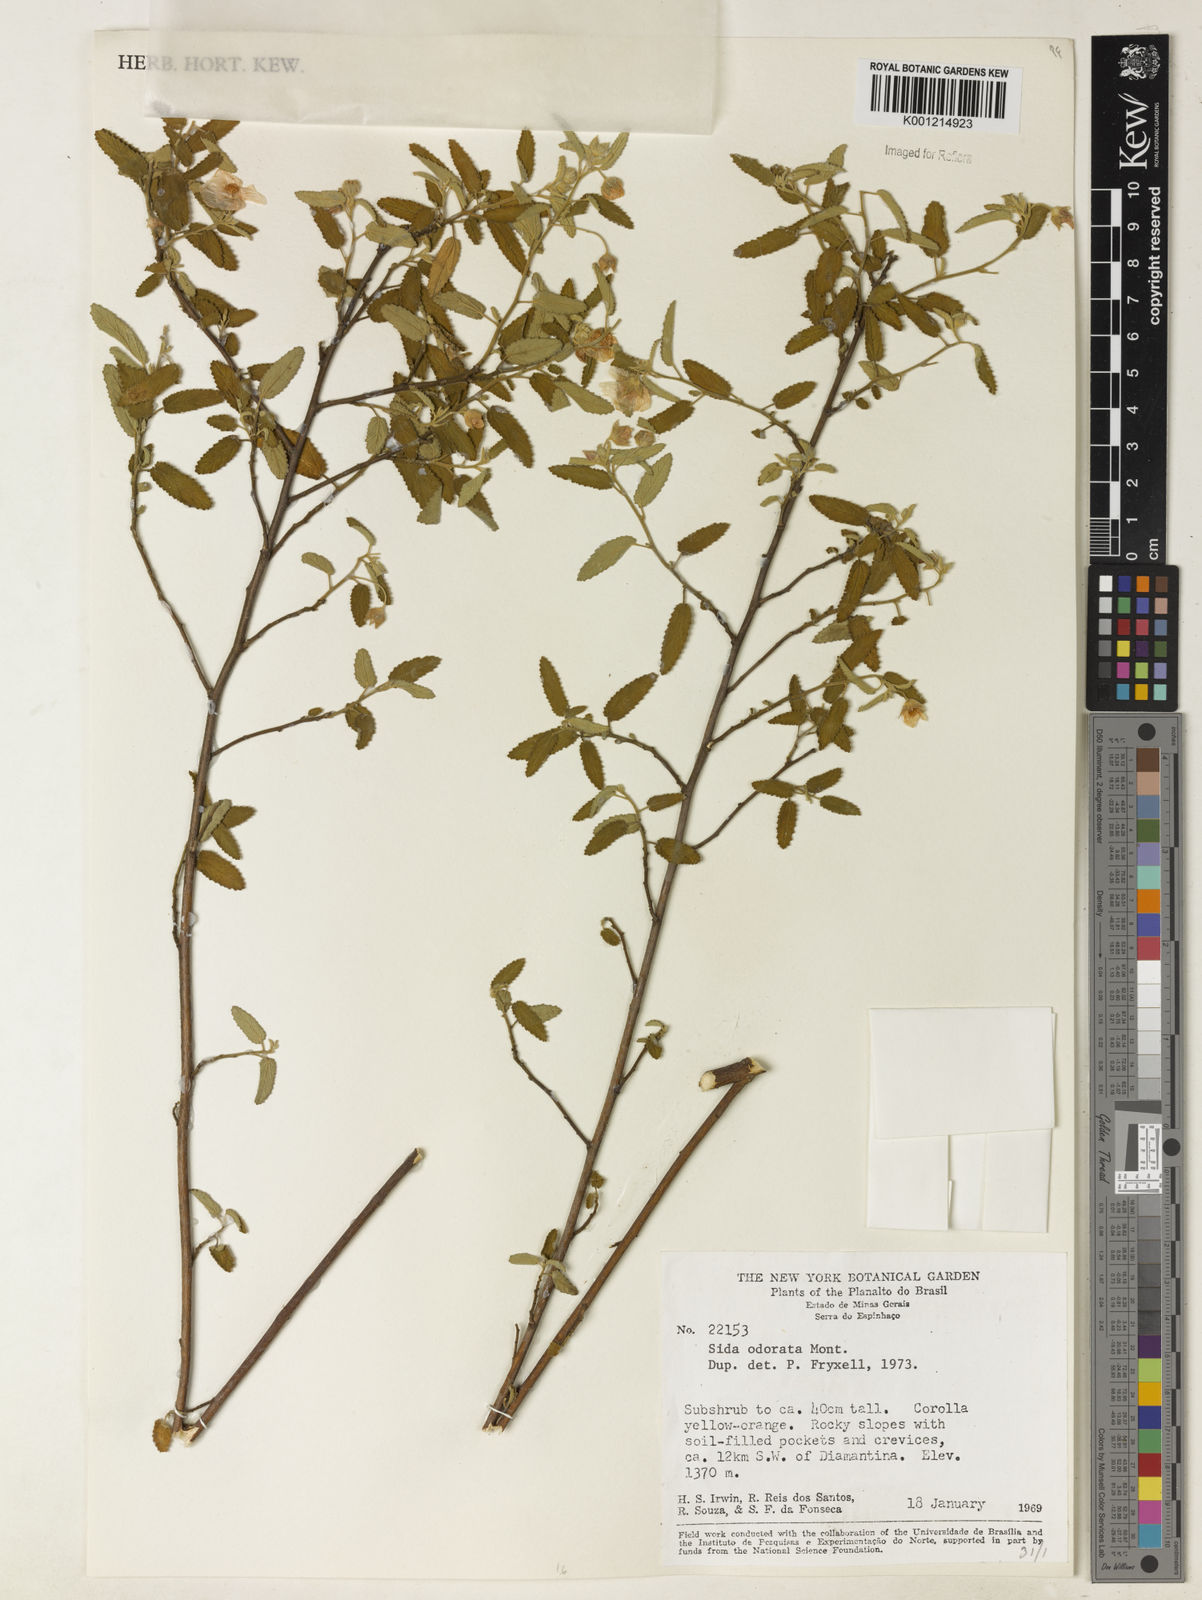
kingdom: Plantae
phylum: Tracheophyta
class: Magnoliopsida
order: Malvales
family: Malvaceae
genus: Sida
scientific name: Sida
